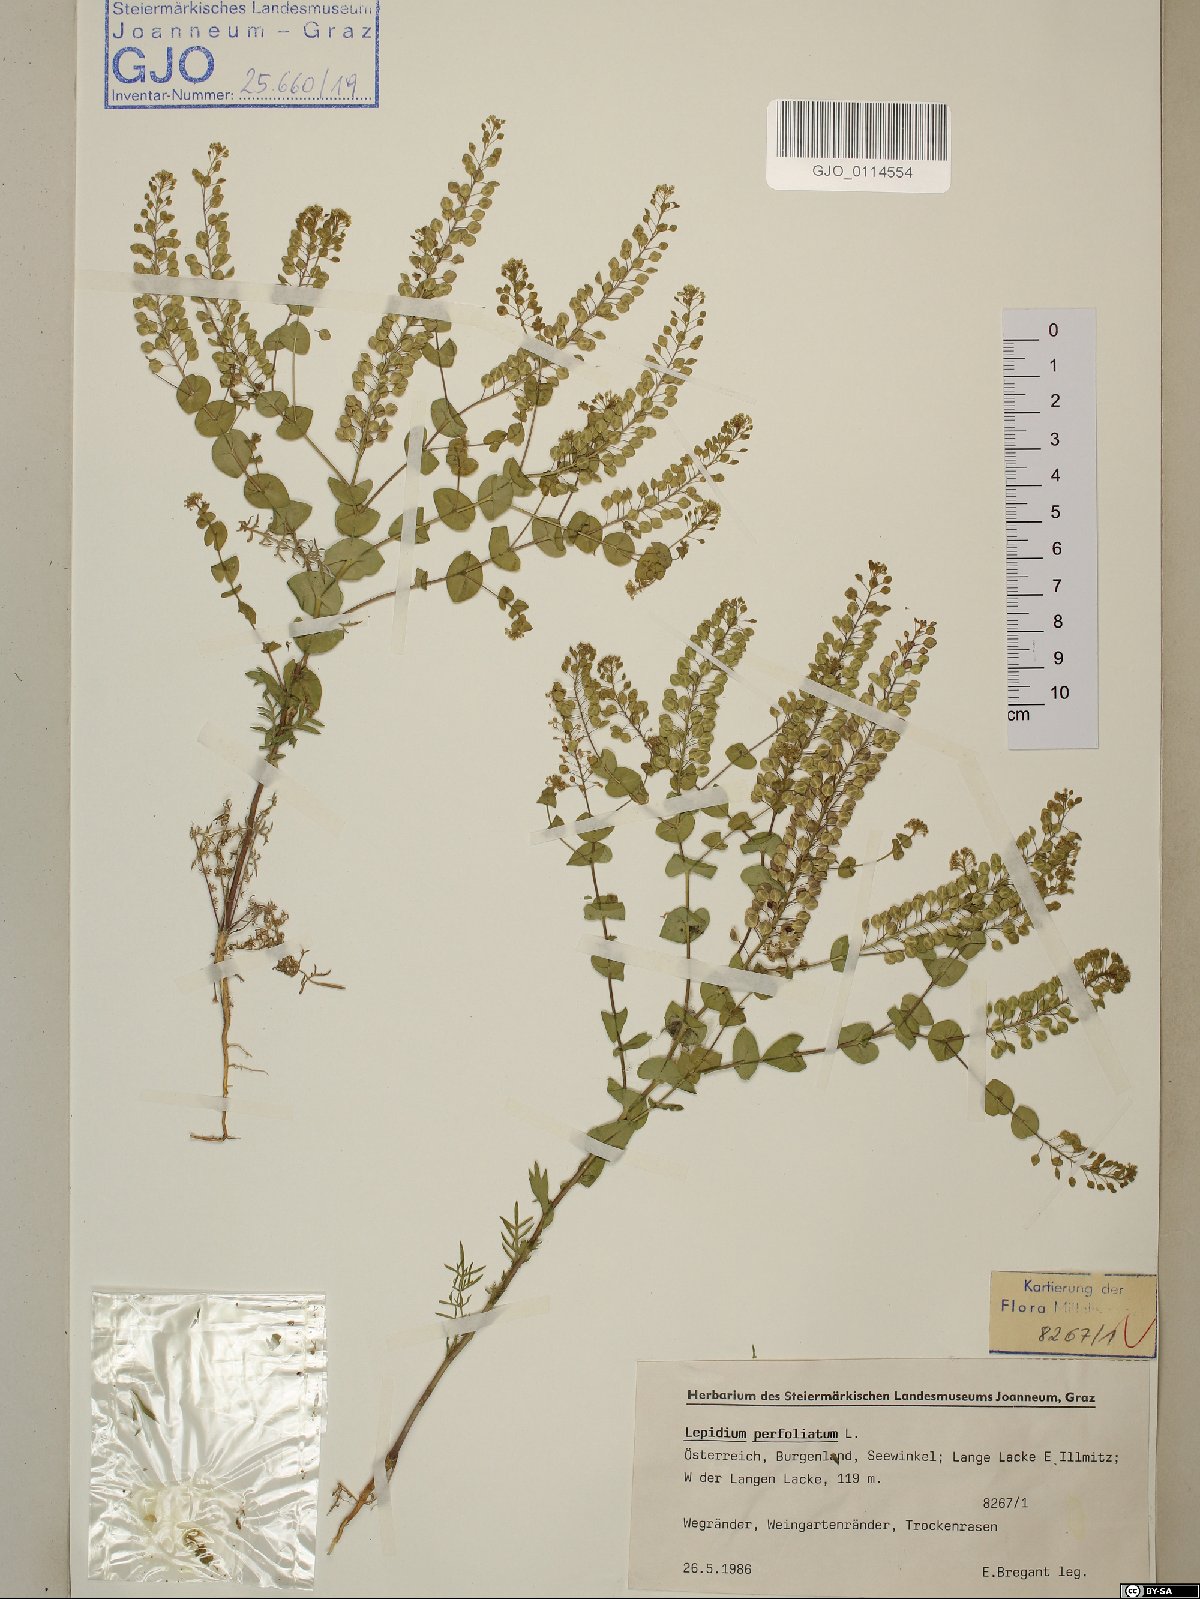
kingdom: Plantae
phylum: Tracheophyta
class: Magnoliopsida
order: Brassicales
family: Brassicaceae
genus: Lepidium
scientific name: Lepidium perfoliatum
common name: Perfoliate pepperwort
